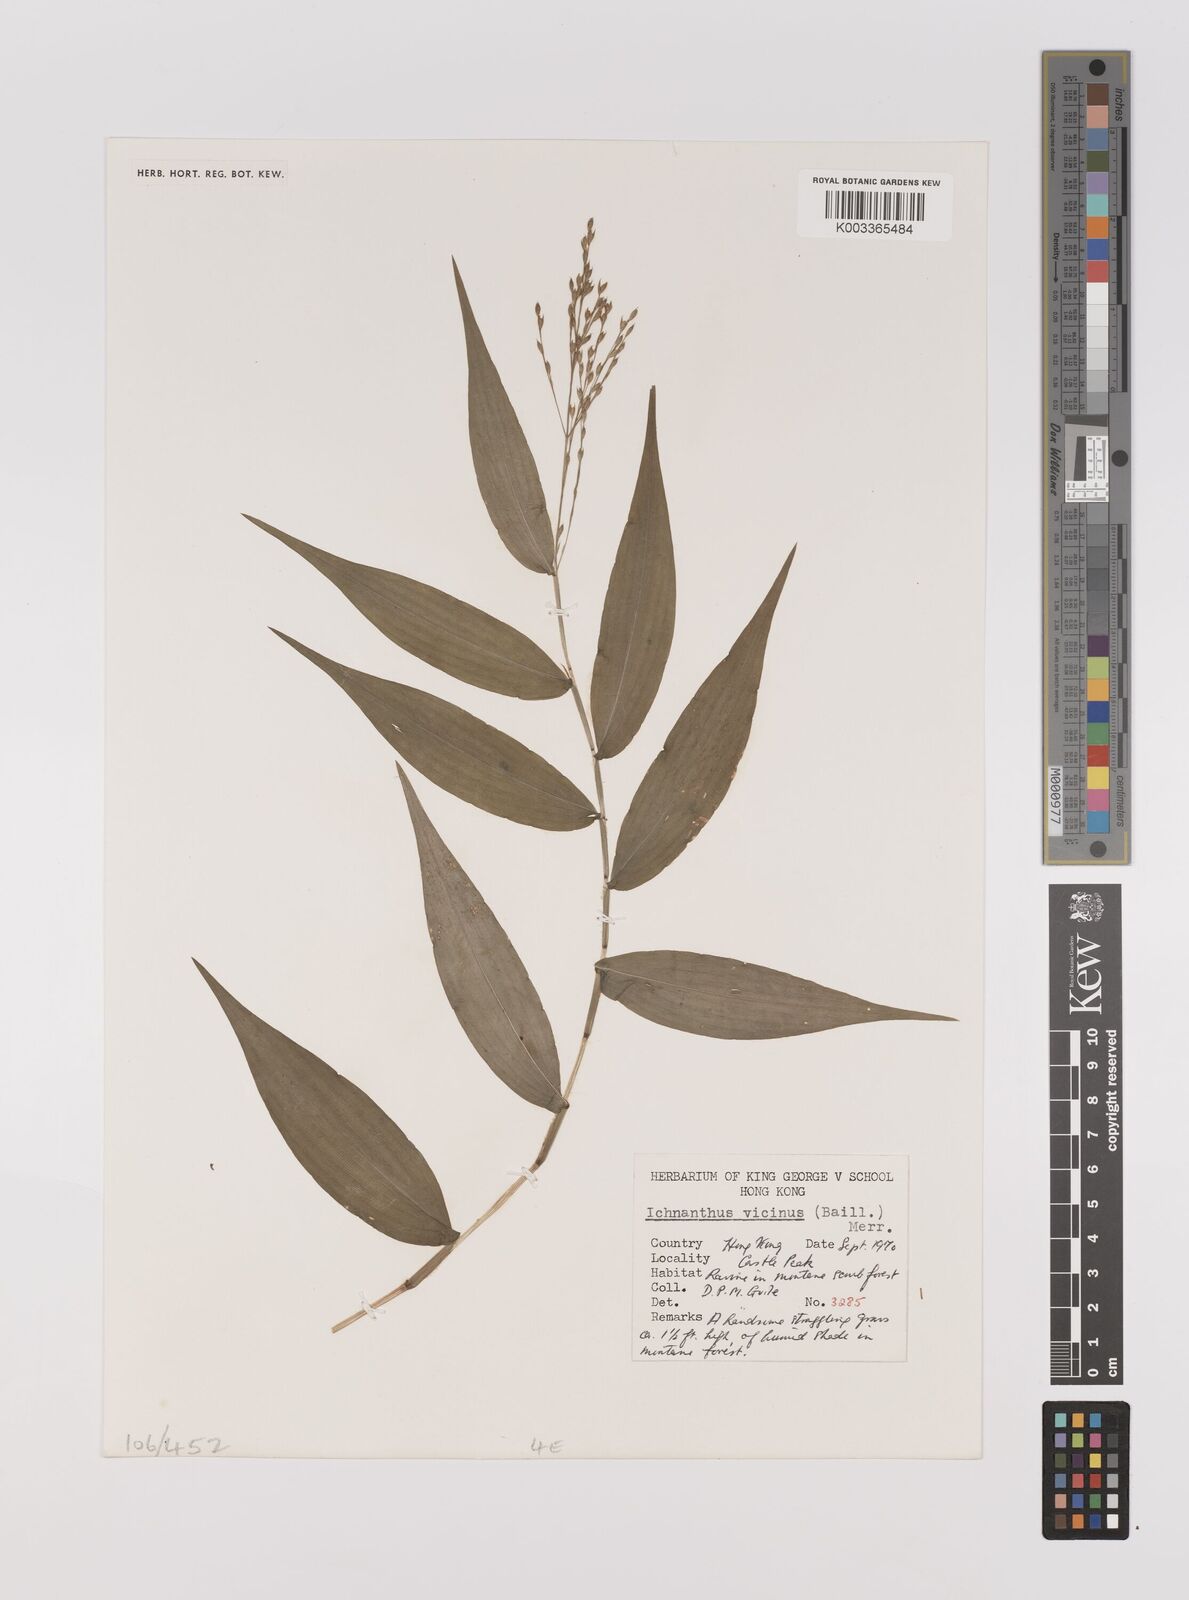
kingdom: Plantae
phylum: Tracheophyta
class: Liliopsida
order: Poales
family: Poaceae
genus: Ichnanthus
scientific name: Ichnanthus pallens
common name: Water grass
